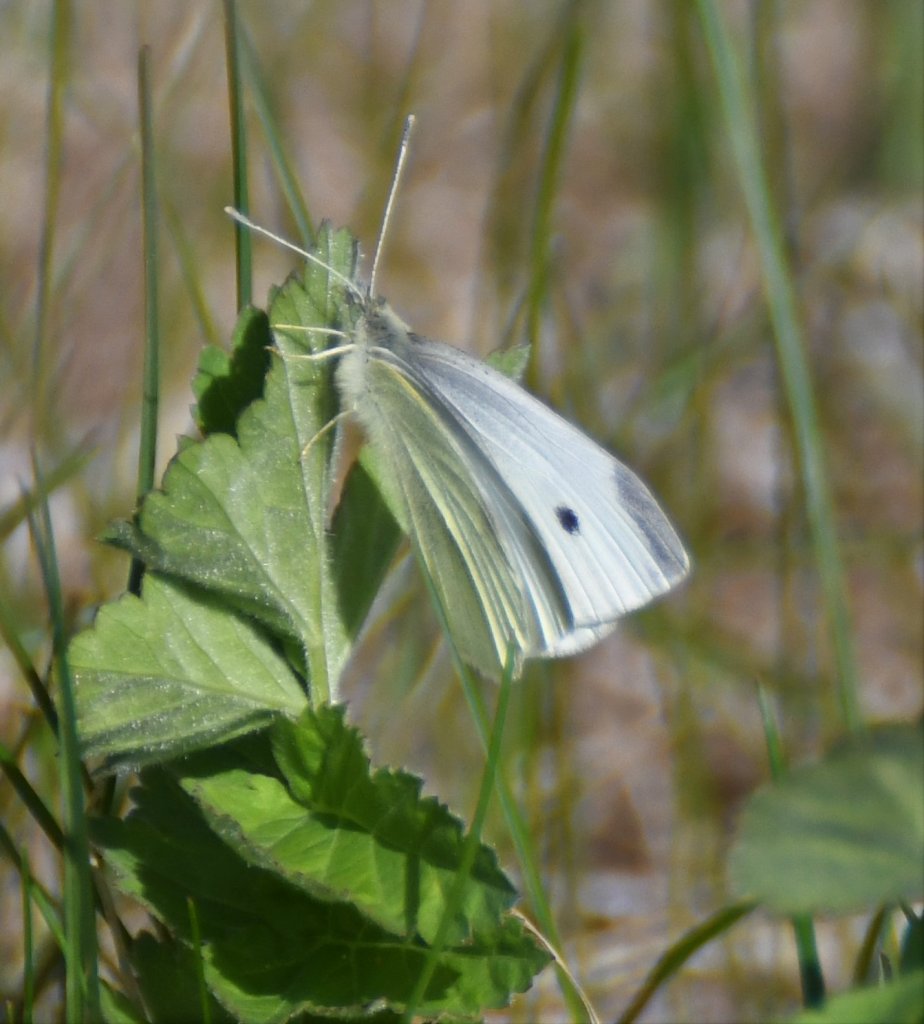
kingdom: Animalia
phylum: Arthropoda
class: Insecta
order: Lepidoptera
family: Pieridae
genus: Pieris
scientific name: Pieris rapae
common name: Cabbage White
